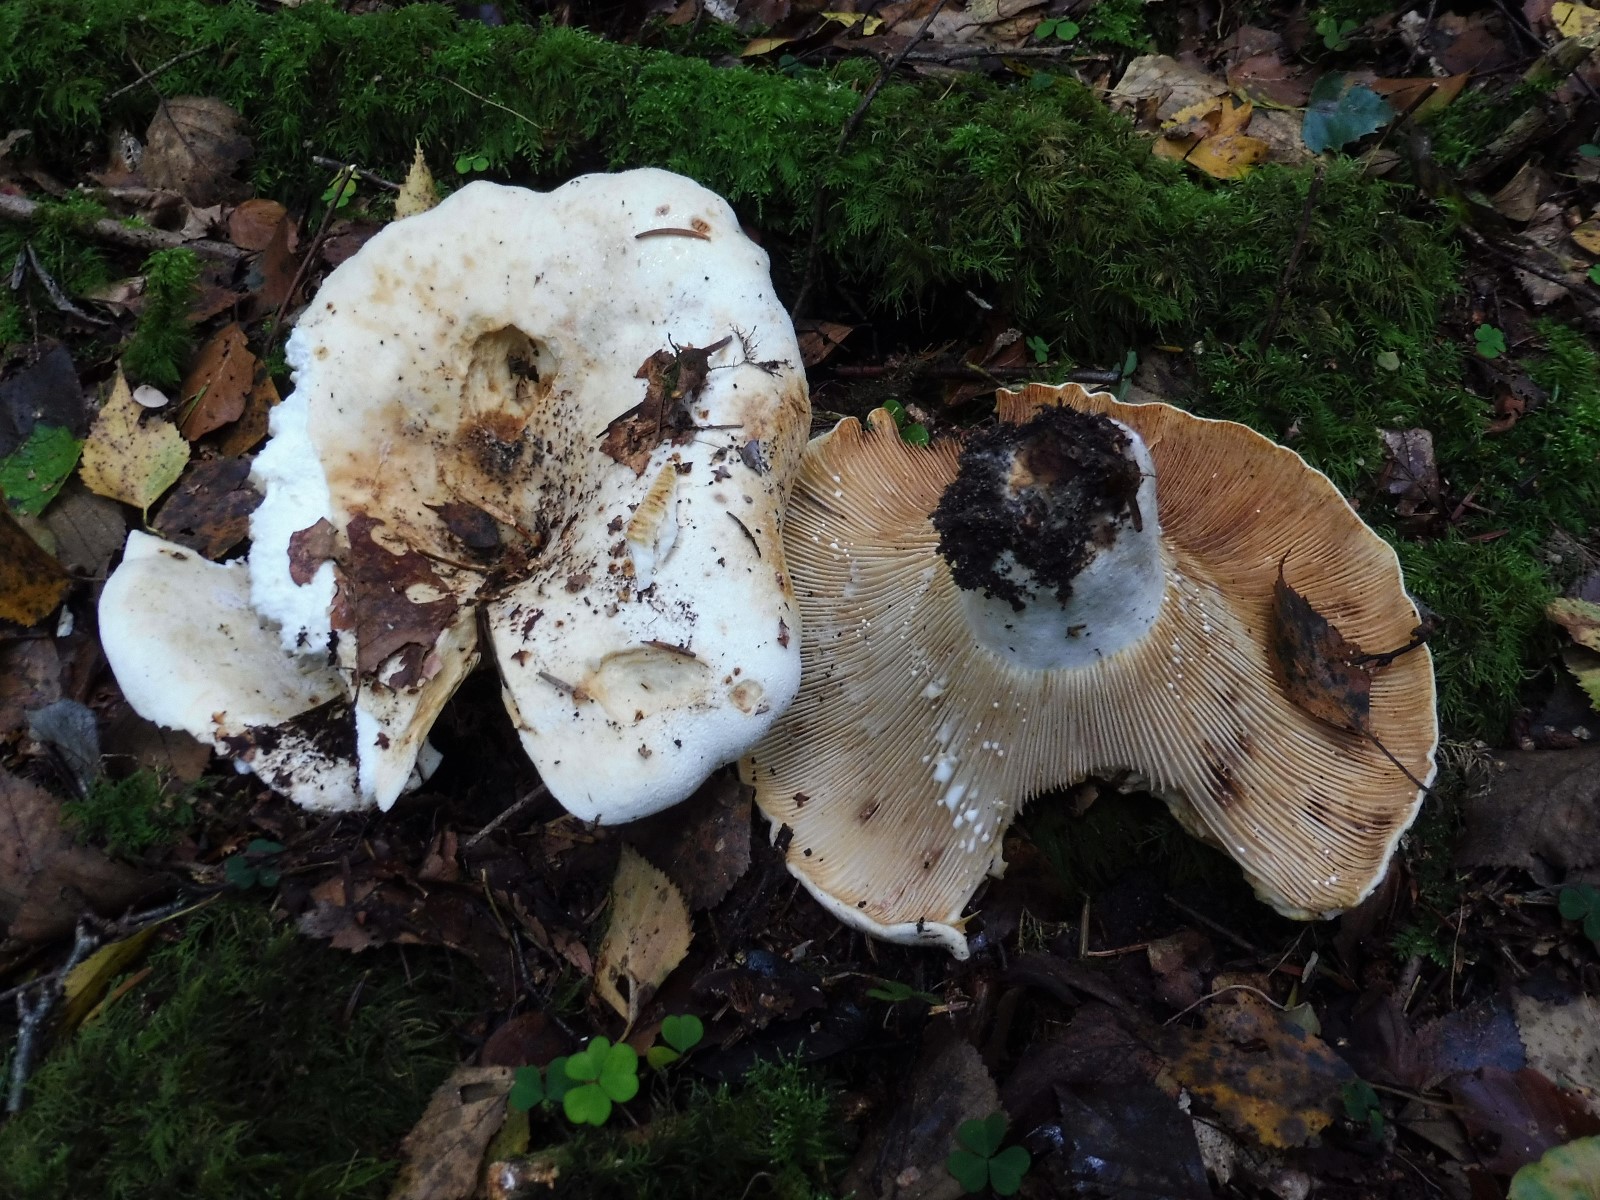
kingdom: Fungi
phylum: Basidiomycota
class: Agaricomycetes
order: Russulales
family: Russulaceae
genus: Lactifluus
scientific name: Lactifluus vellereus
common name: hvidfiltet mælkehat
